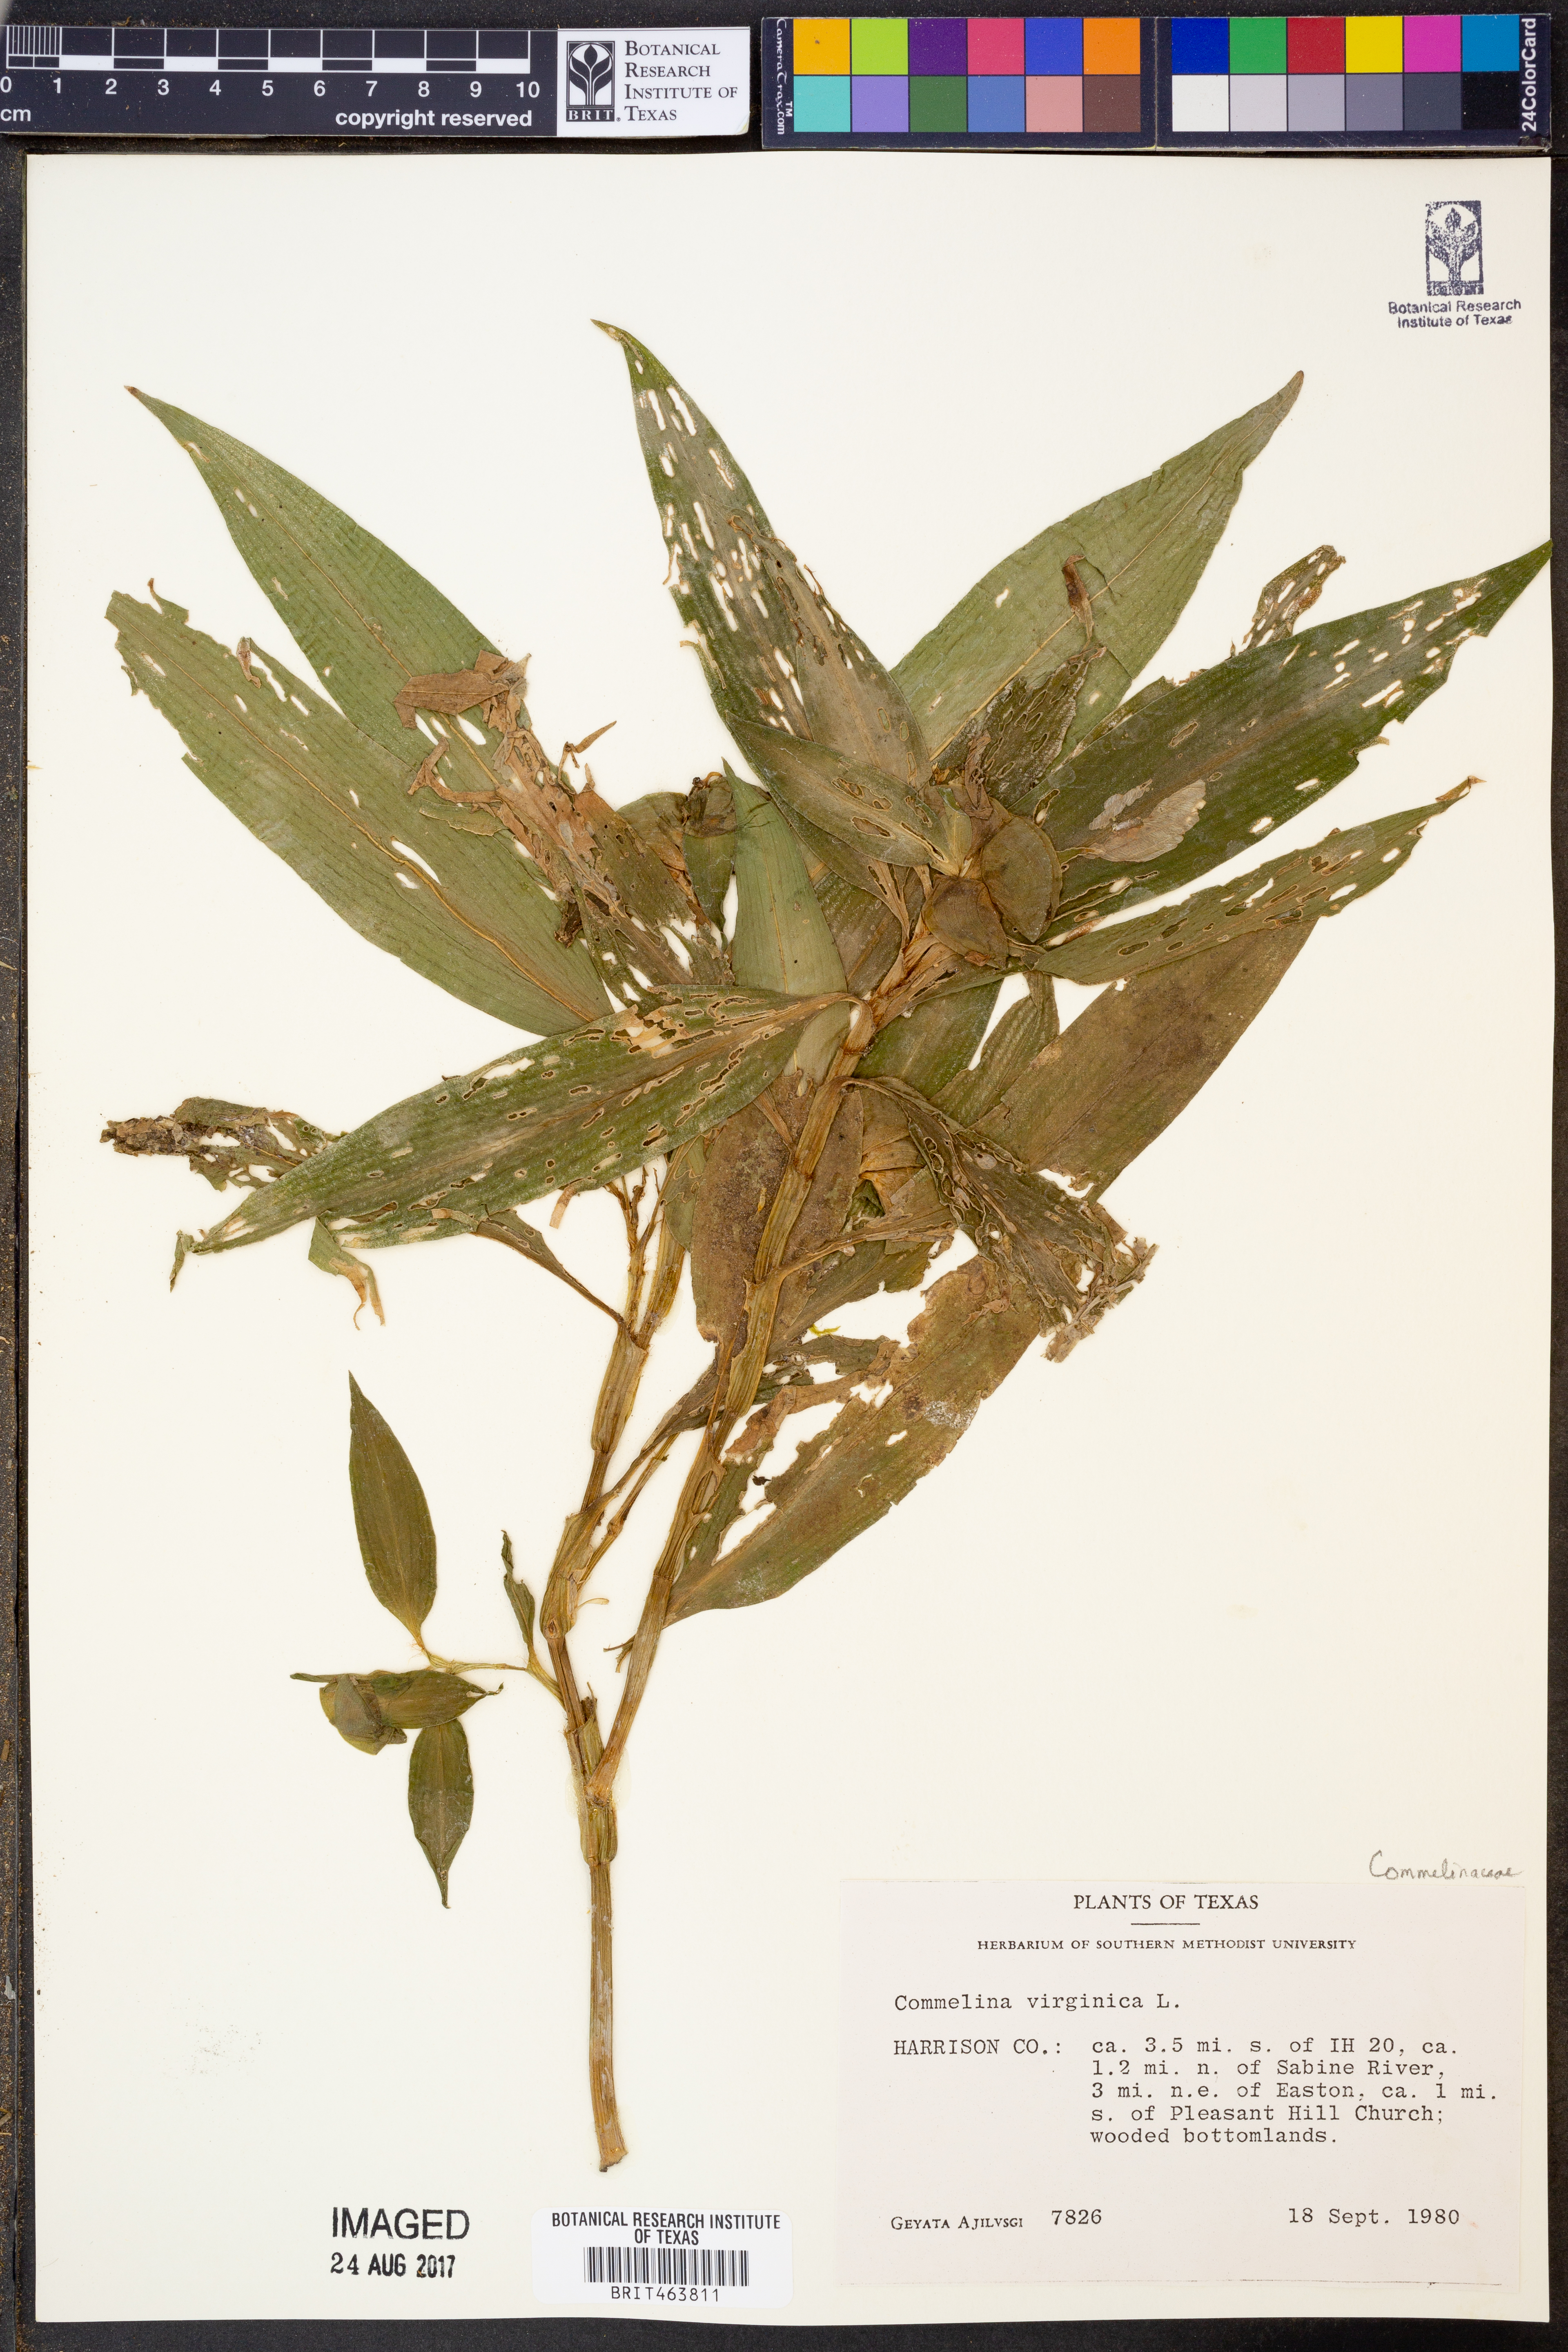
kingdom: Plantae
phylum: Tracheophyta
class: Liliopsida
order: Commelinales
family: Commelinaceae
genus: Commelina
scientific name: Commelina virginica
